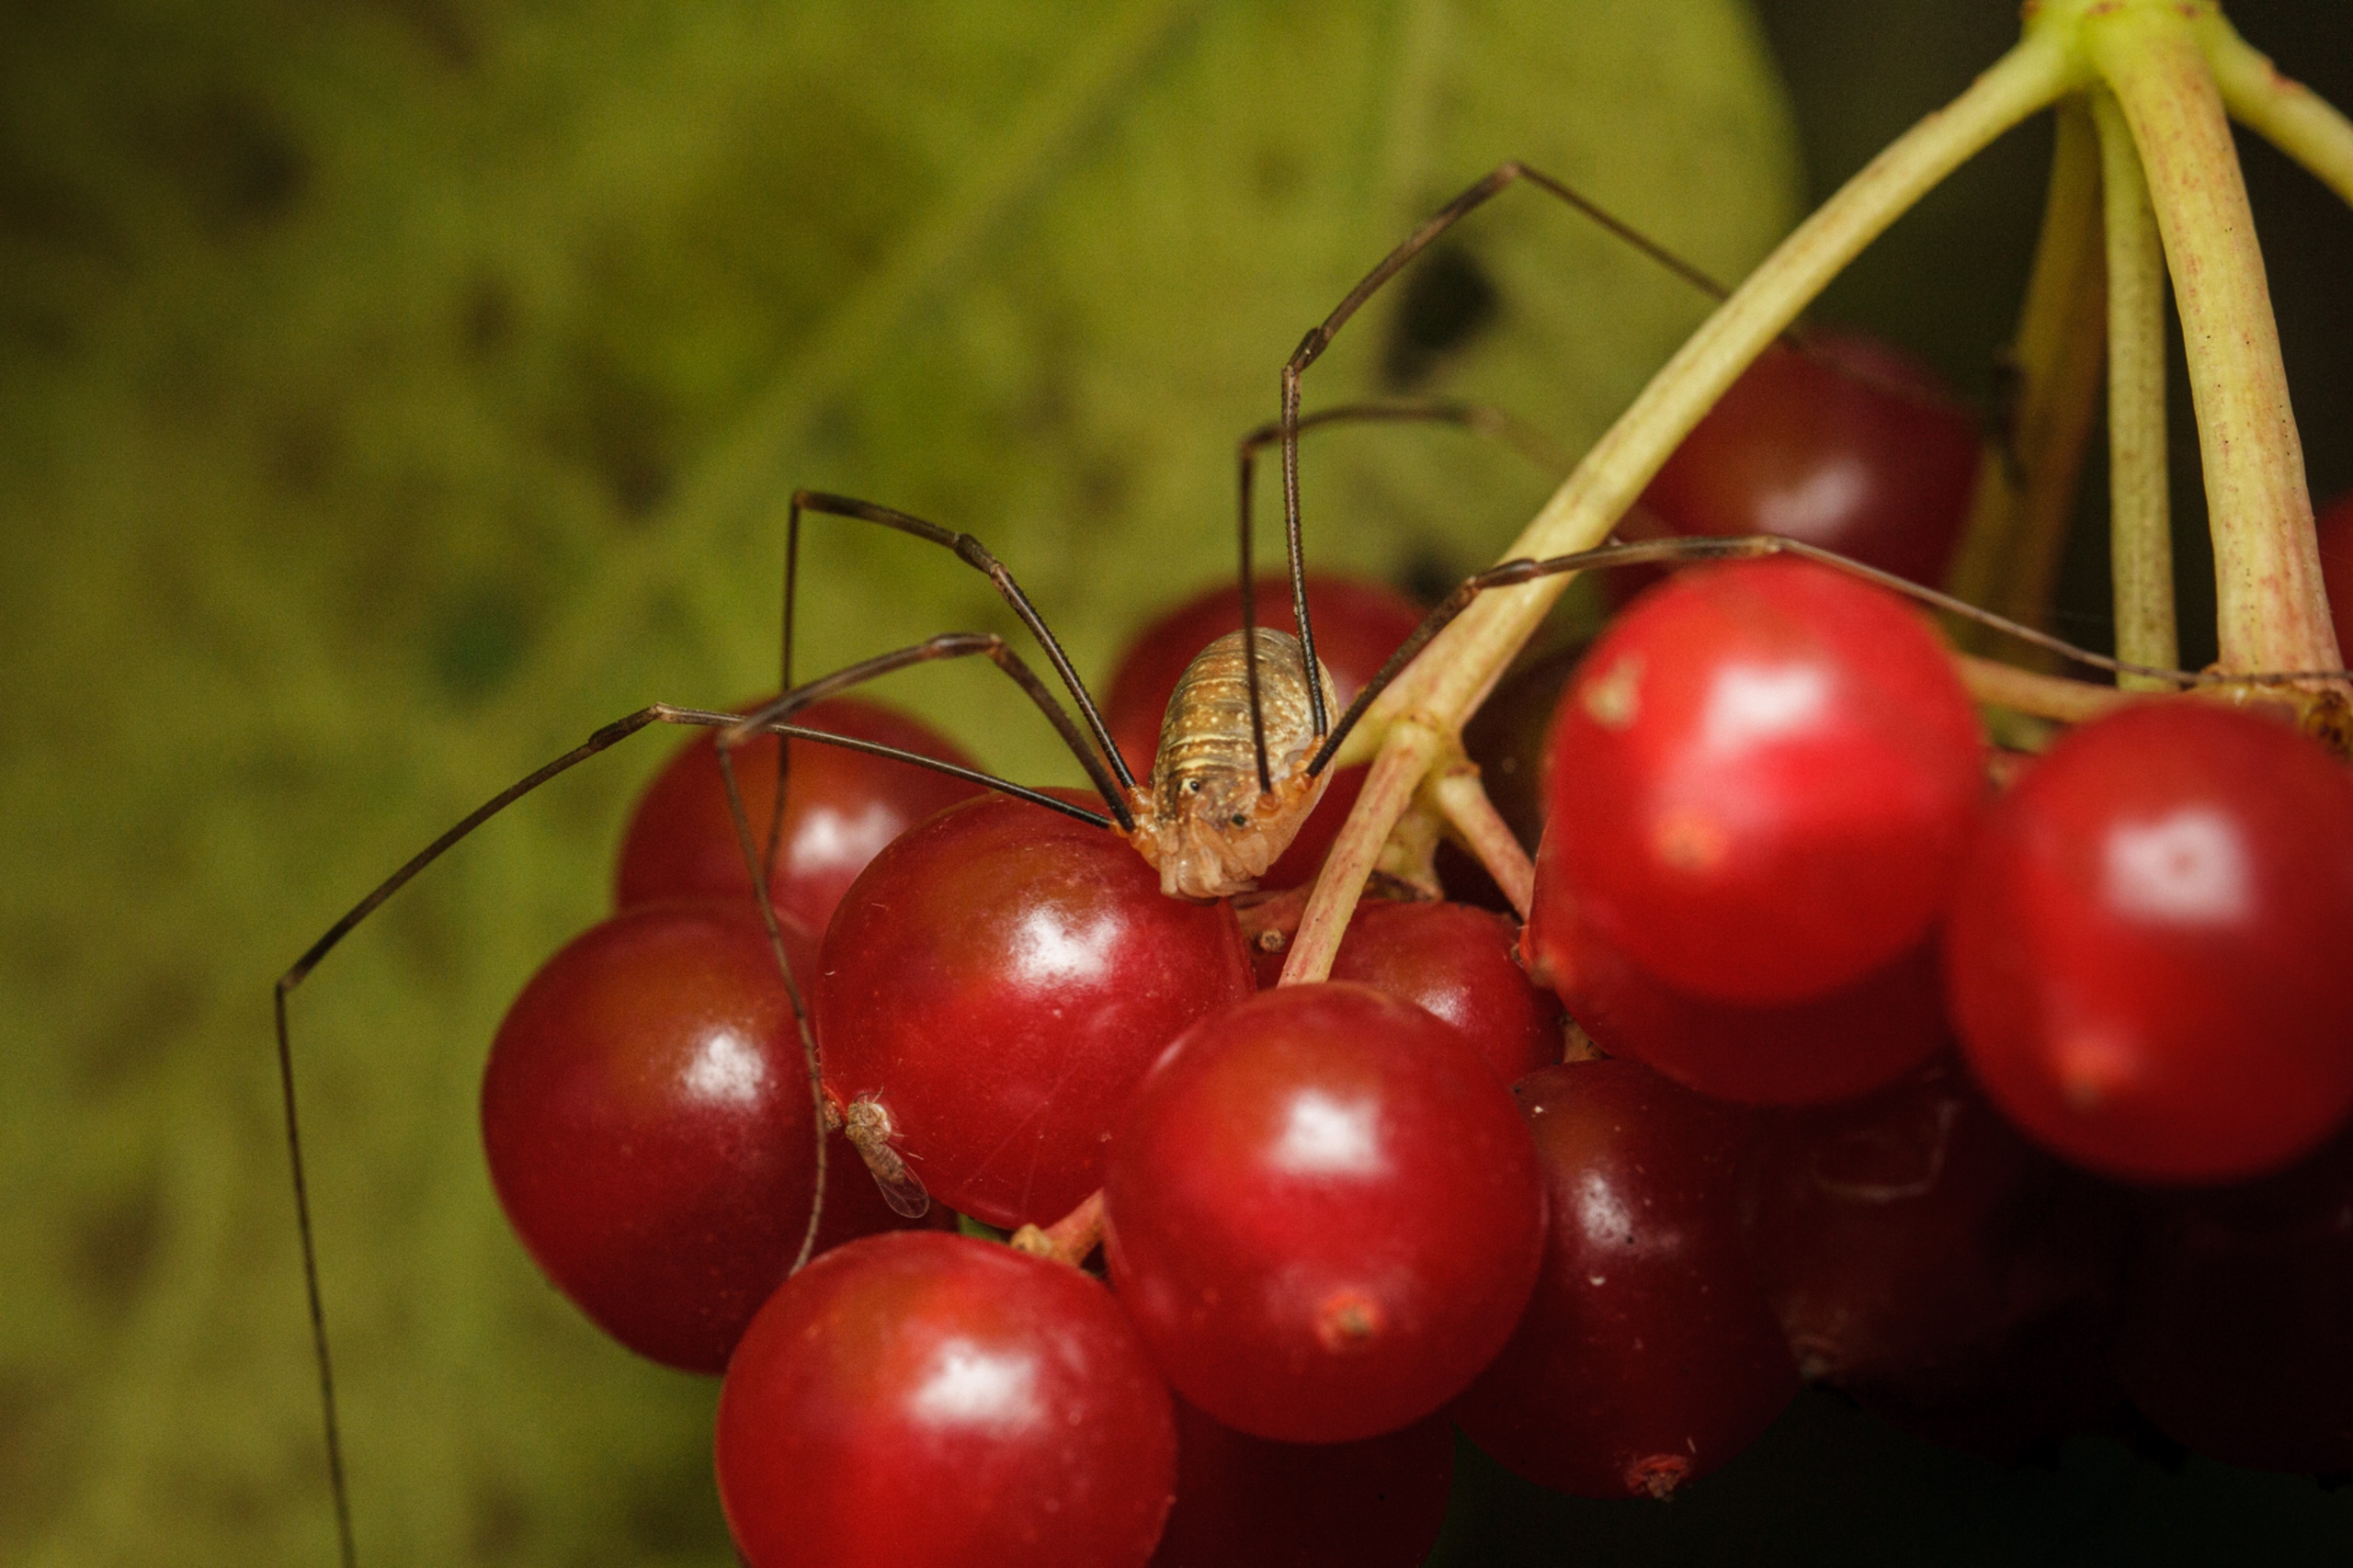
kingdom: Animalia
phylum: Arthropoda
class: Arachnida
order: Opiliones
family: Phalangiidae
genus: Opilio
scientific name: Opilio canestrinii
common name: Orange vægmejer
